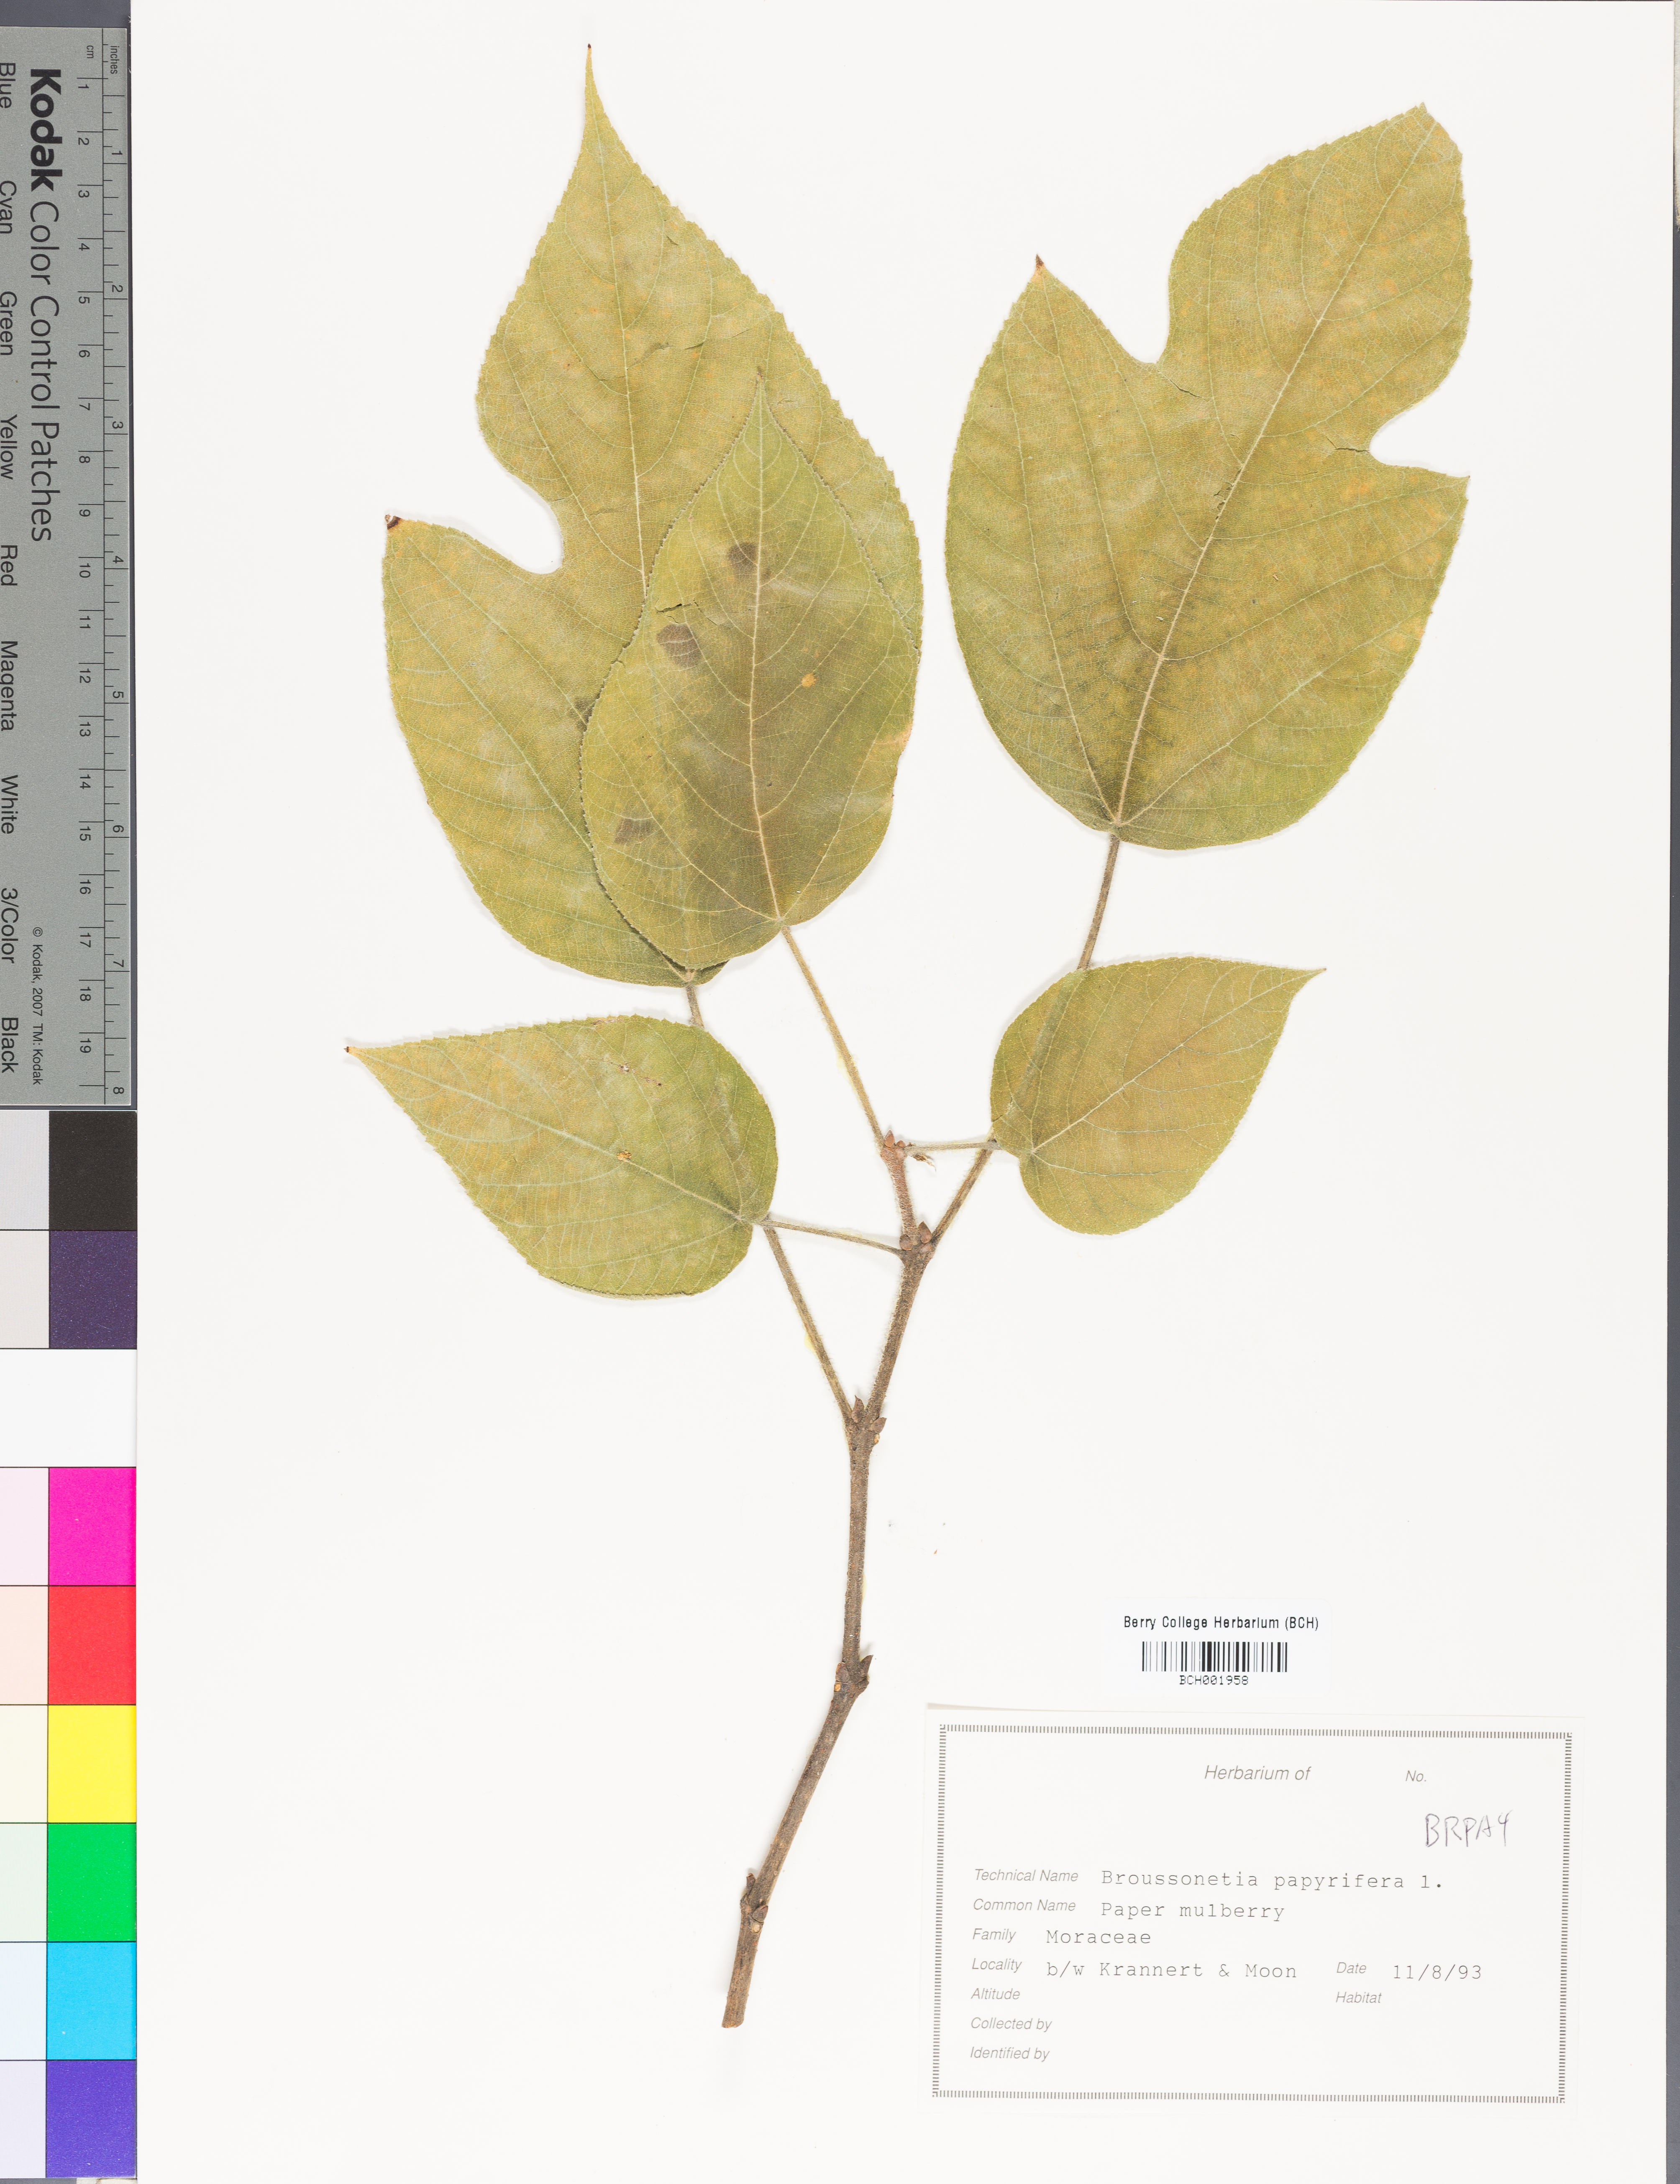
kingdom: Plantae
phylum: Tracheophyta
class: Magnoliopsida
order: Rosales
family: Moraceae
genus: Broussonetia
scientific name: Broussonetia papyrifera
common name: Paper mulberry
